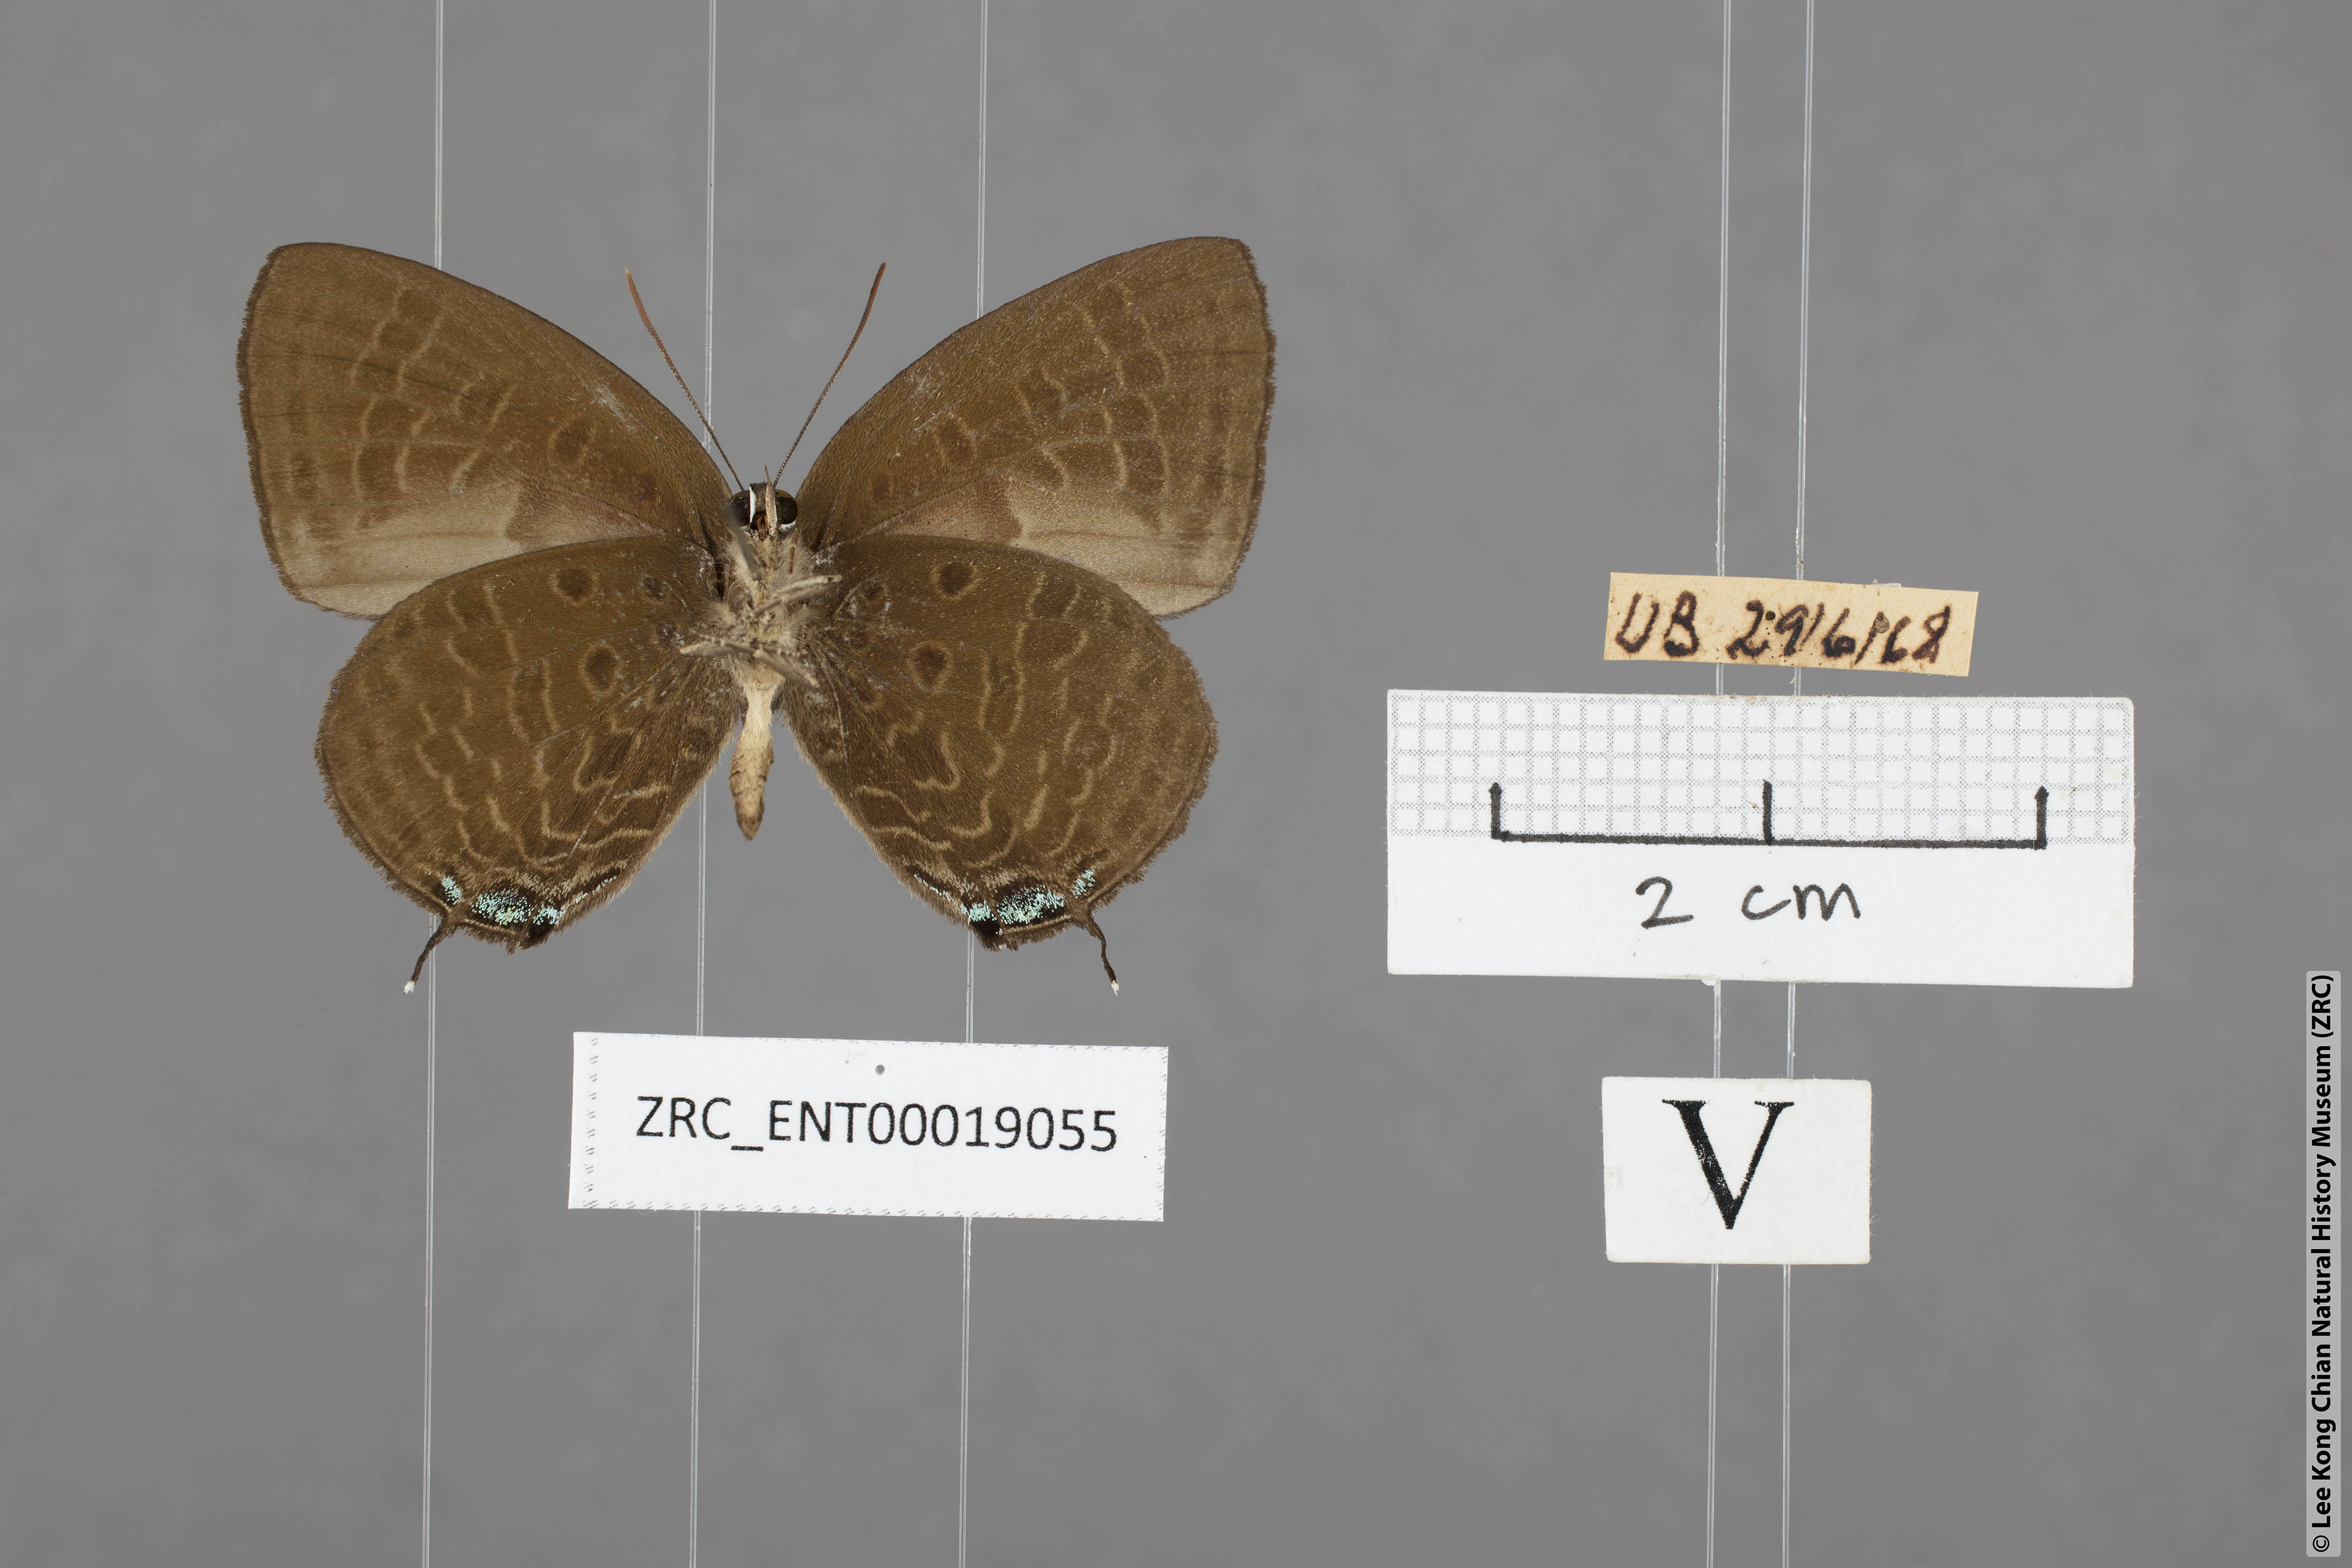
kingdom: Animalia
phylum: Arthropoda
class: Insecta
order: Lepidoptera
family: Lycaenidae
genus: Arhopala
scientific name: Arhopala agrata
